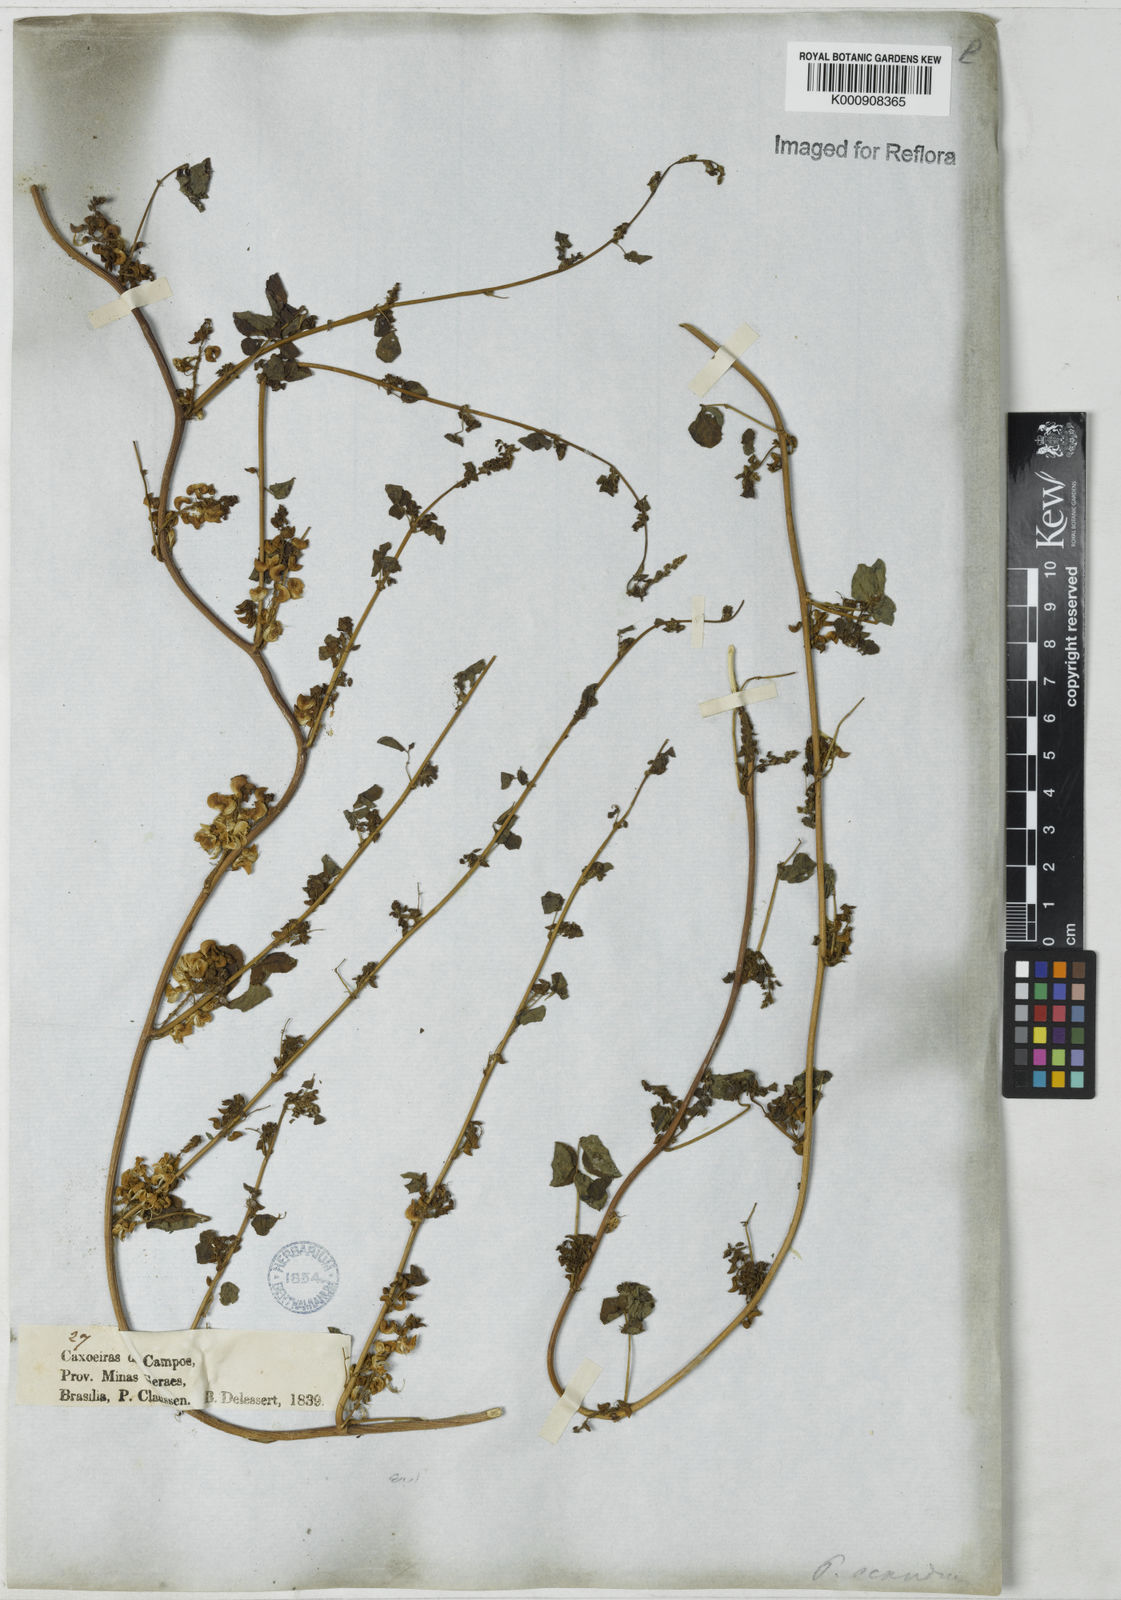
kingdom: Plantae
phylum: Tracheophyta
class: Magnoliopsida
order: Fabales
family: Fabaceae
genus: Poiretia
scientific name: Poiretia punctata
